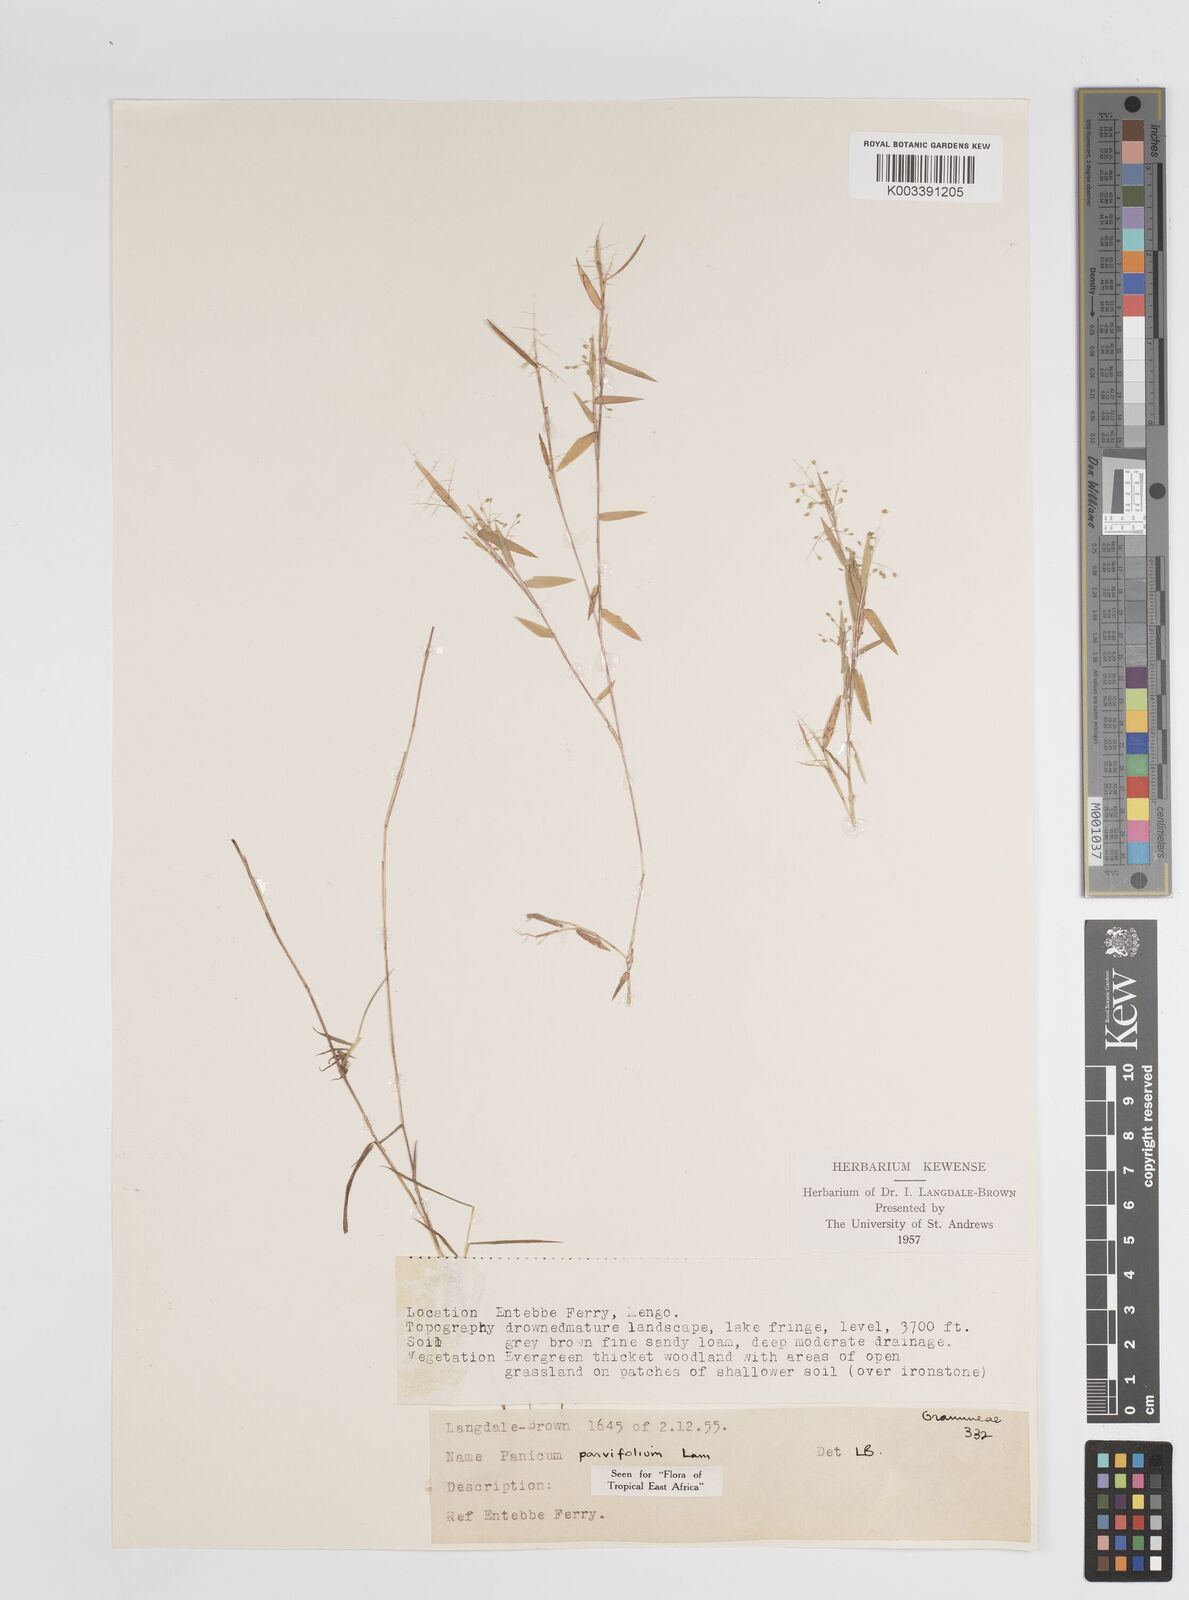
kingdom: Plantae
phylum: Tracheophyta
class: Liliopsida
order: Poales
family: Poaceae
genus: Trichanthecium
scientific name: Trichanthecium parvifolium
